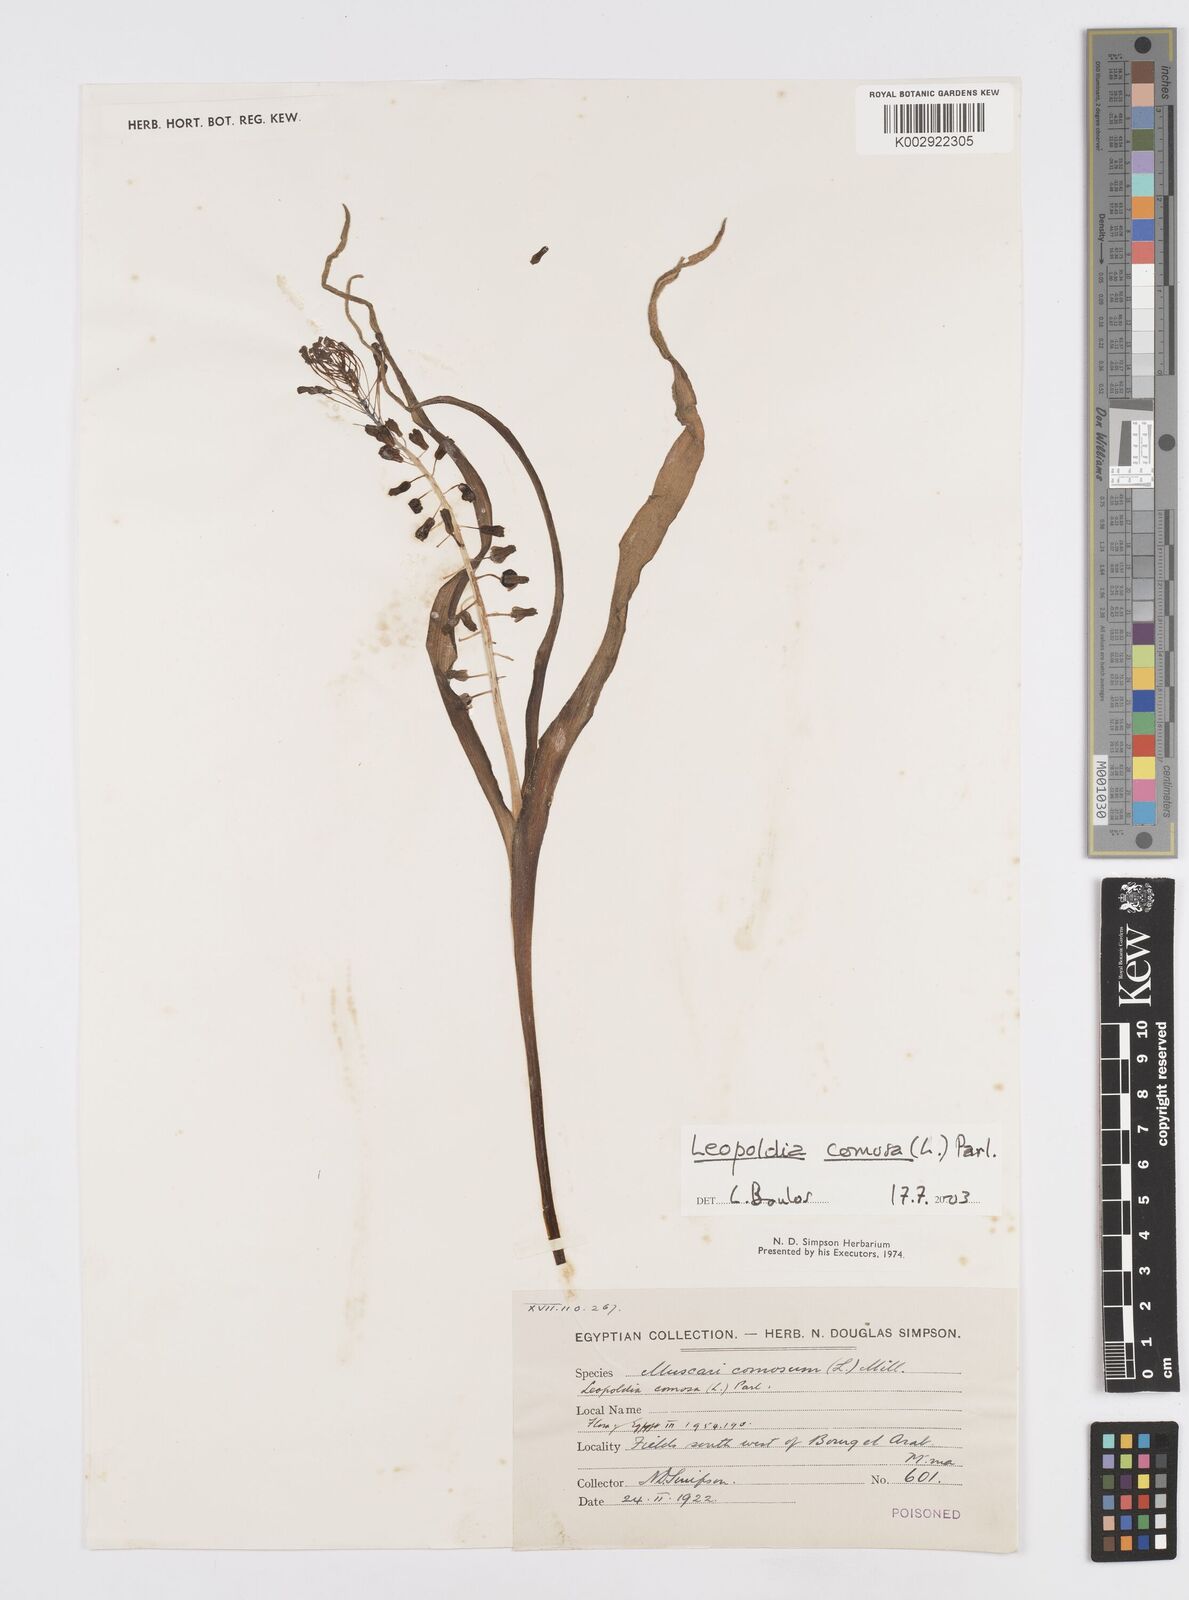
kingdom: Plantae
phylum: Tracheophyta
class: Liliopsida
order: Asparagales
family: Asparagaceae
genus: Muscari
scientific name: Muscari comosum
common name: Tassel hyacinth
